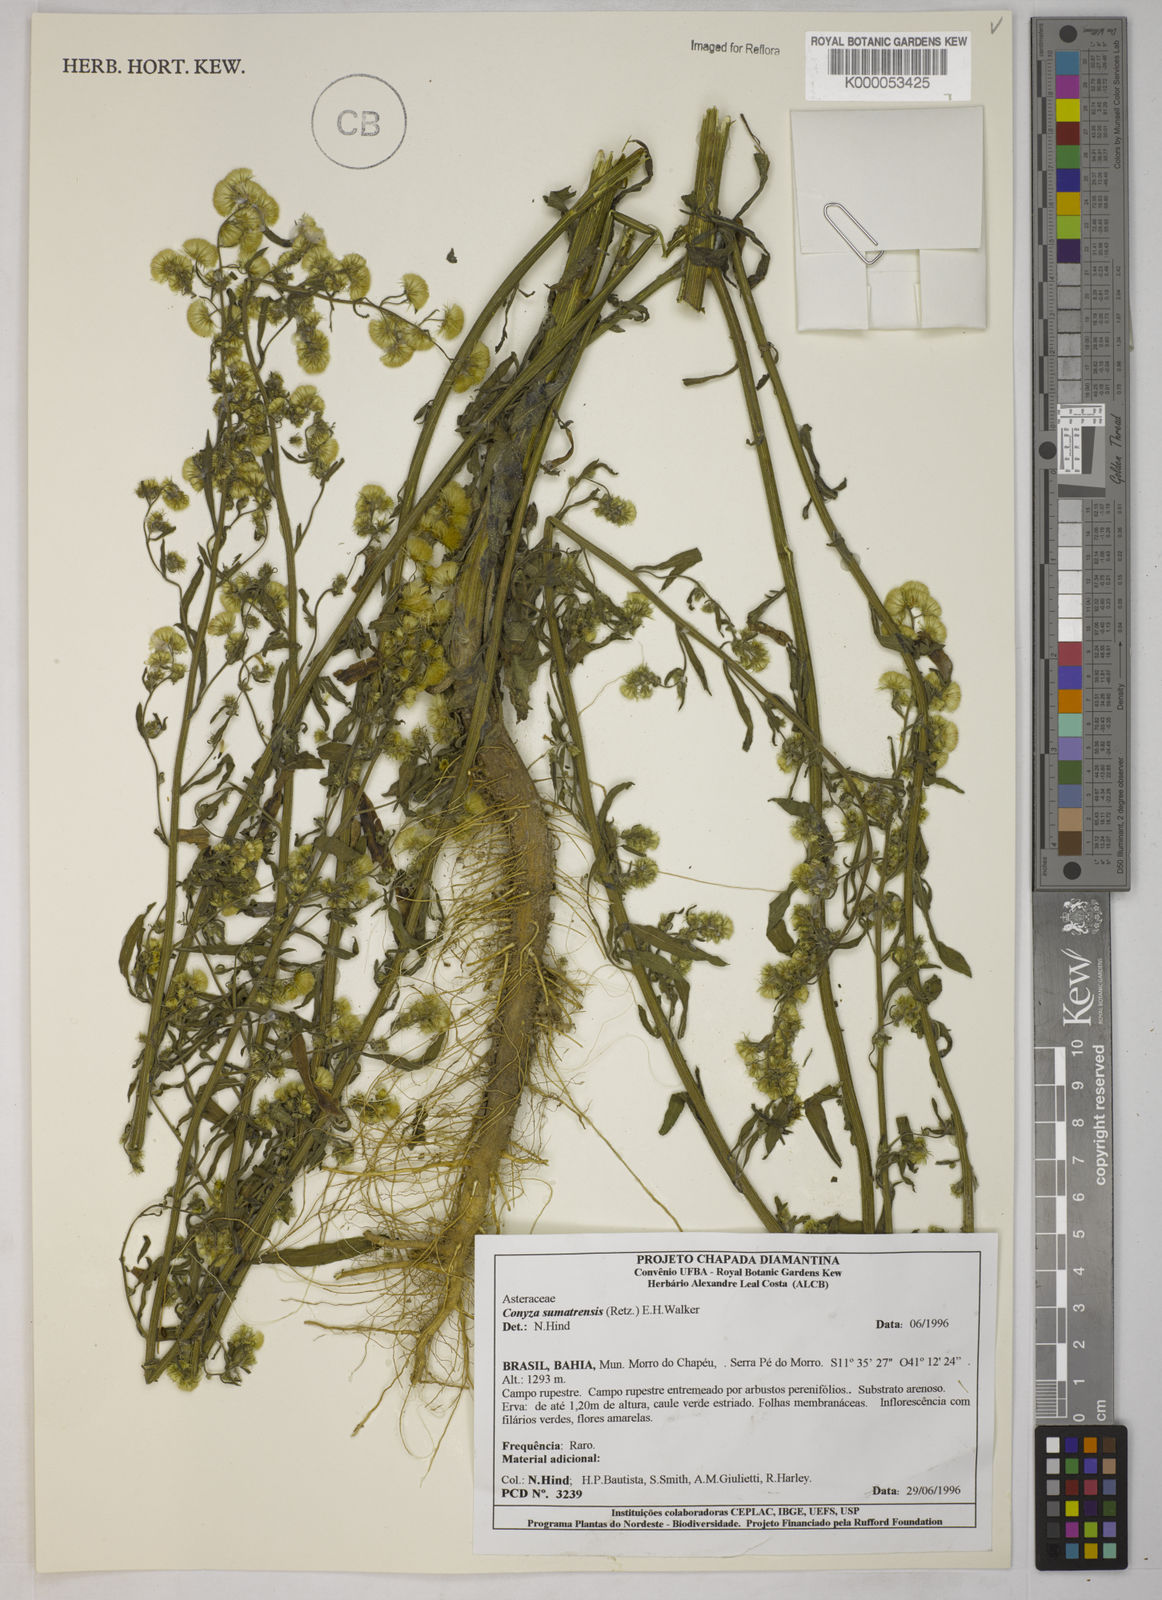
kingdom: Plantae
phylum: Tracheophyta
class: Magnoliopsida
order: Asterales
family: Asteraceae
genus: Erigeron
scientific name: Erigeron sumatrensis
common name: Daisy
